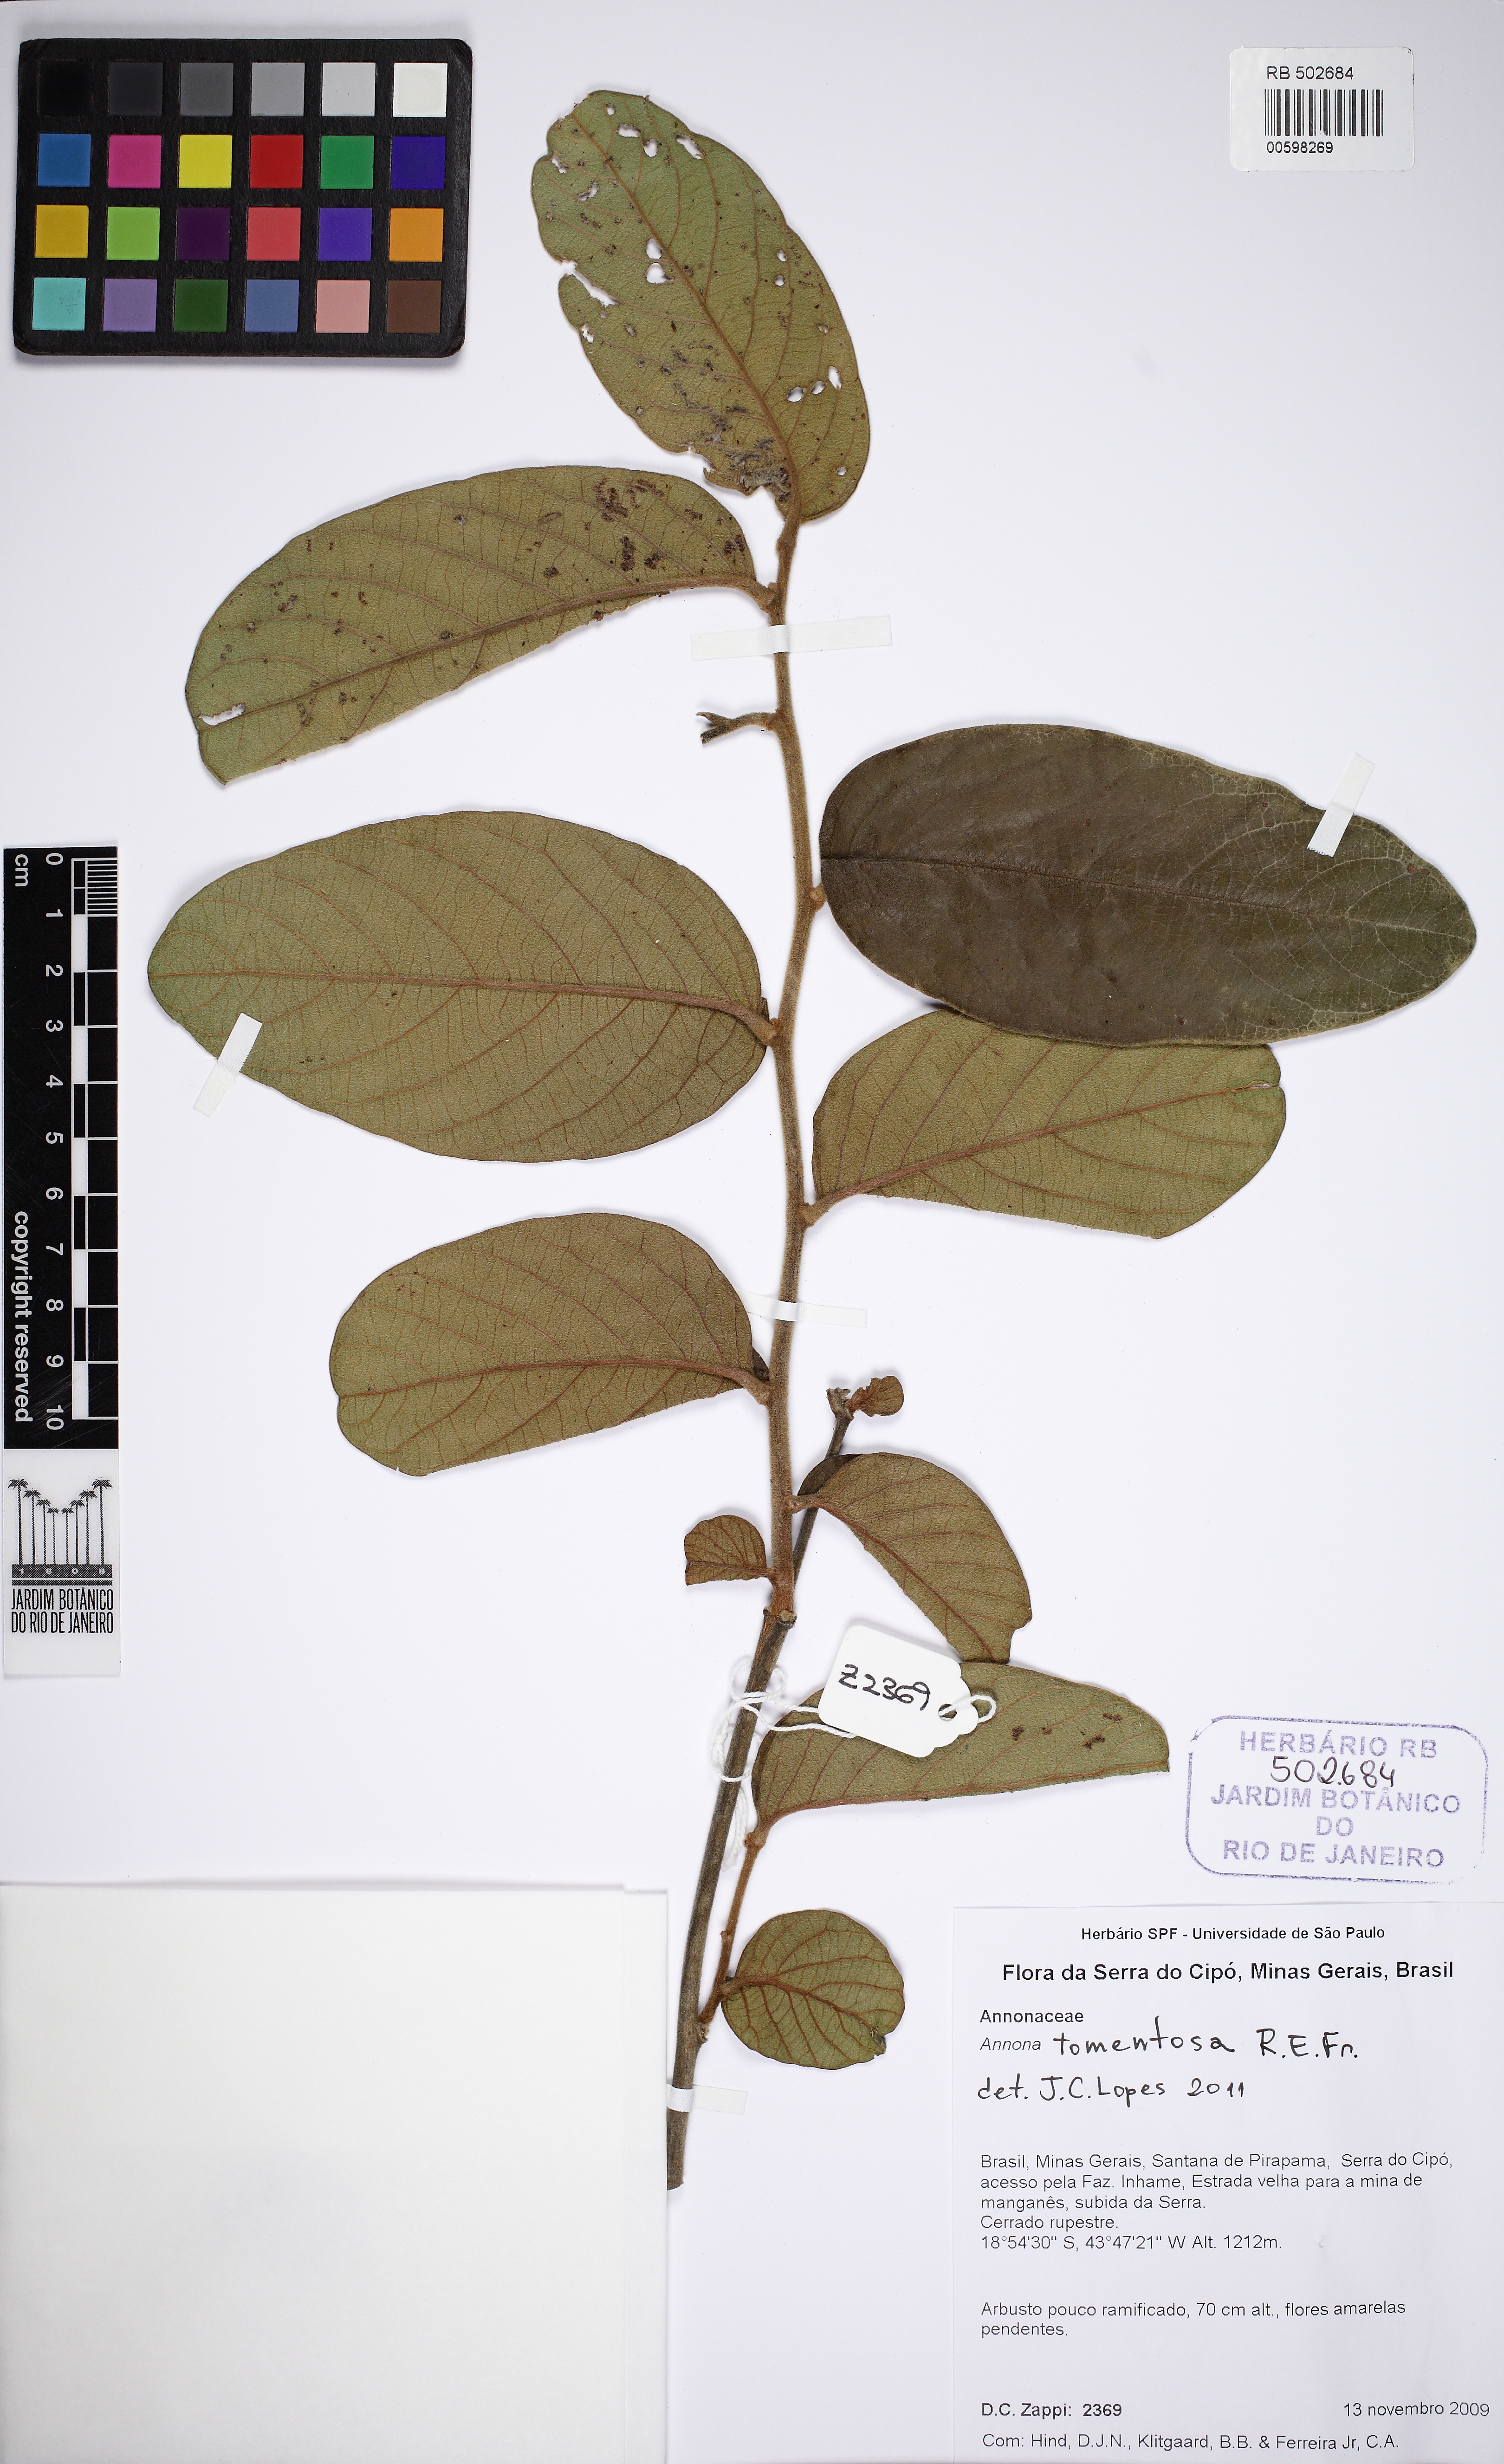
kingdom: Plantae
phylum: Tracheophyta
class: Magnoliopsida
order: Magnoliales
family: Annonaceae
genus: Annona
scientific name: Annona tomentosa
